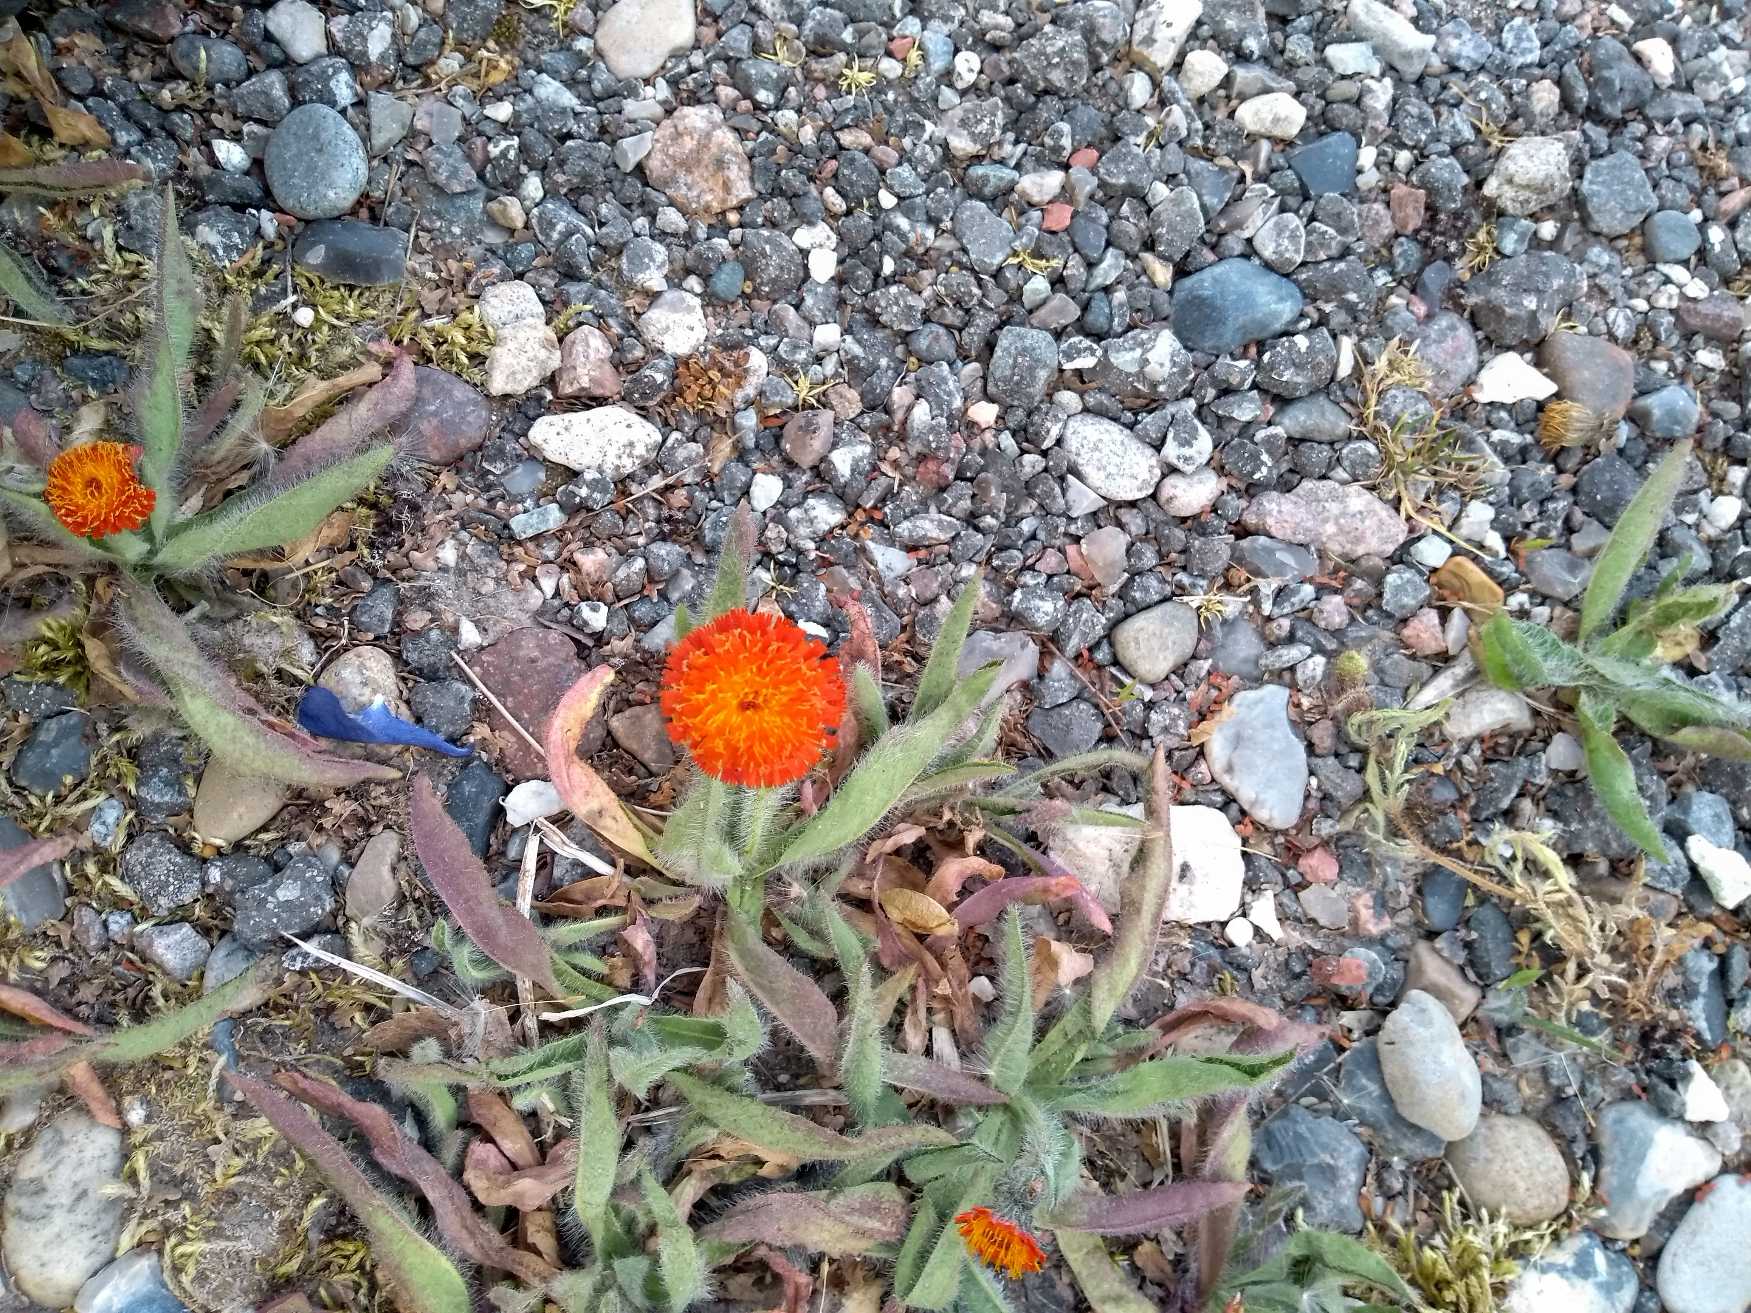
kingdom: Plantae
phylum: Tracheophyta
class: Magnoliopsida
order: Asterales
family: Asteraceae
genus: Pilosella
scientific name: Pilosella aurantiaca
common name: Pomerans-høgeurt
